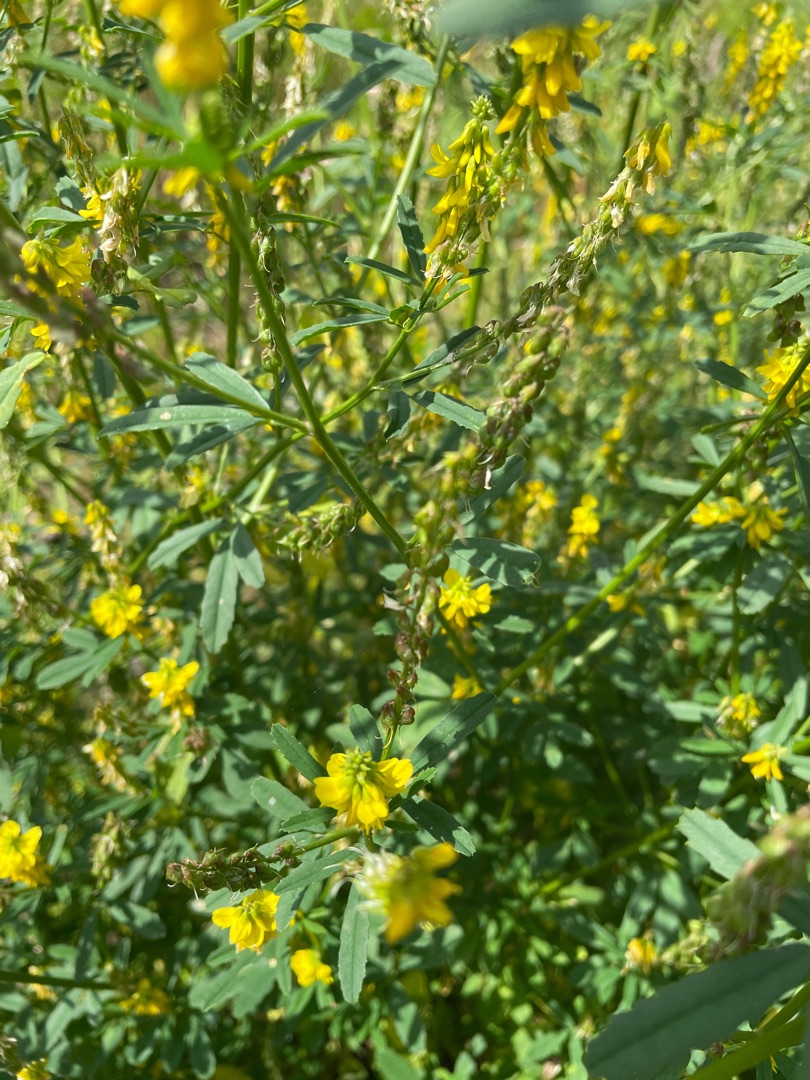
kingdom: Plantae
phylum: Tracheophyta
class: Magnoliopsida
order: Fabales
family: Fabaceae
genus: Melilotus
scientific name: Melilotus officinalis
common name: Mark-stenkløver
